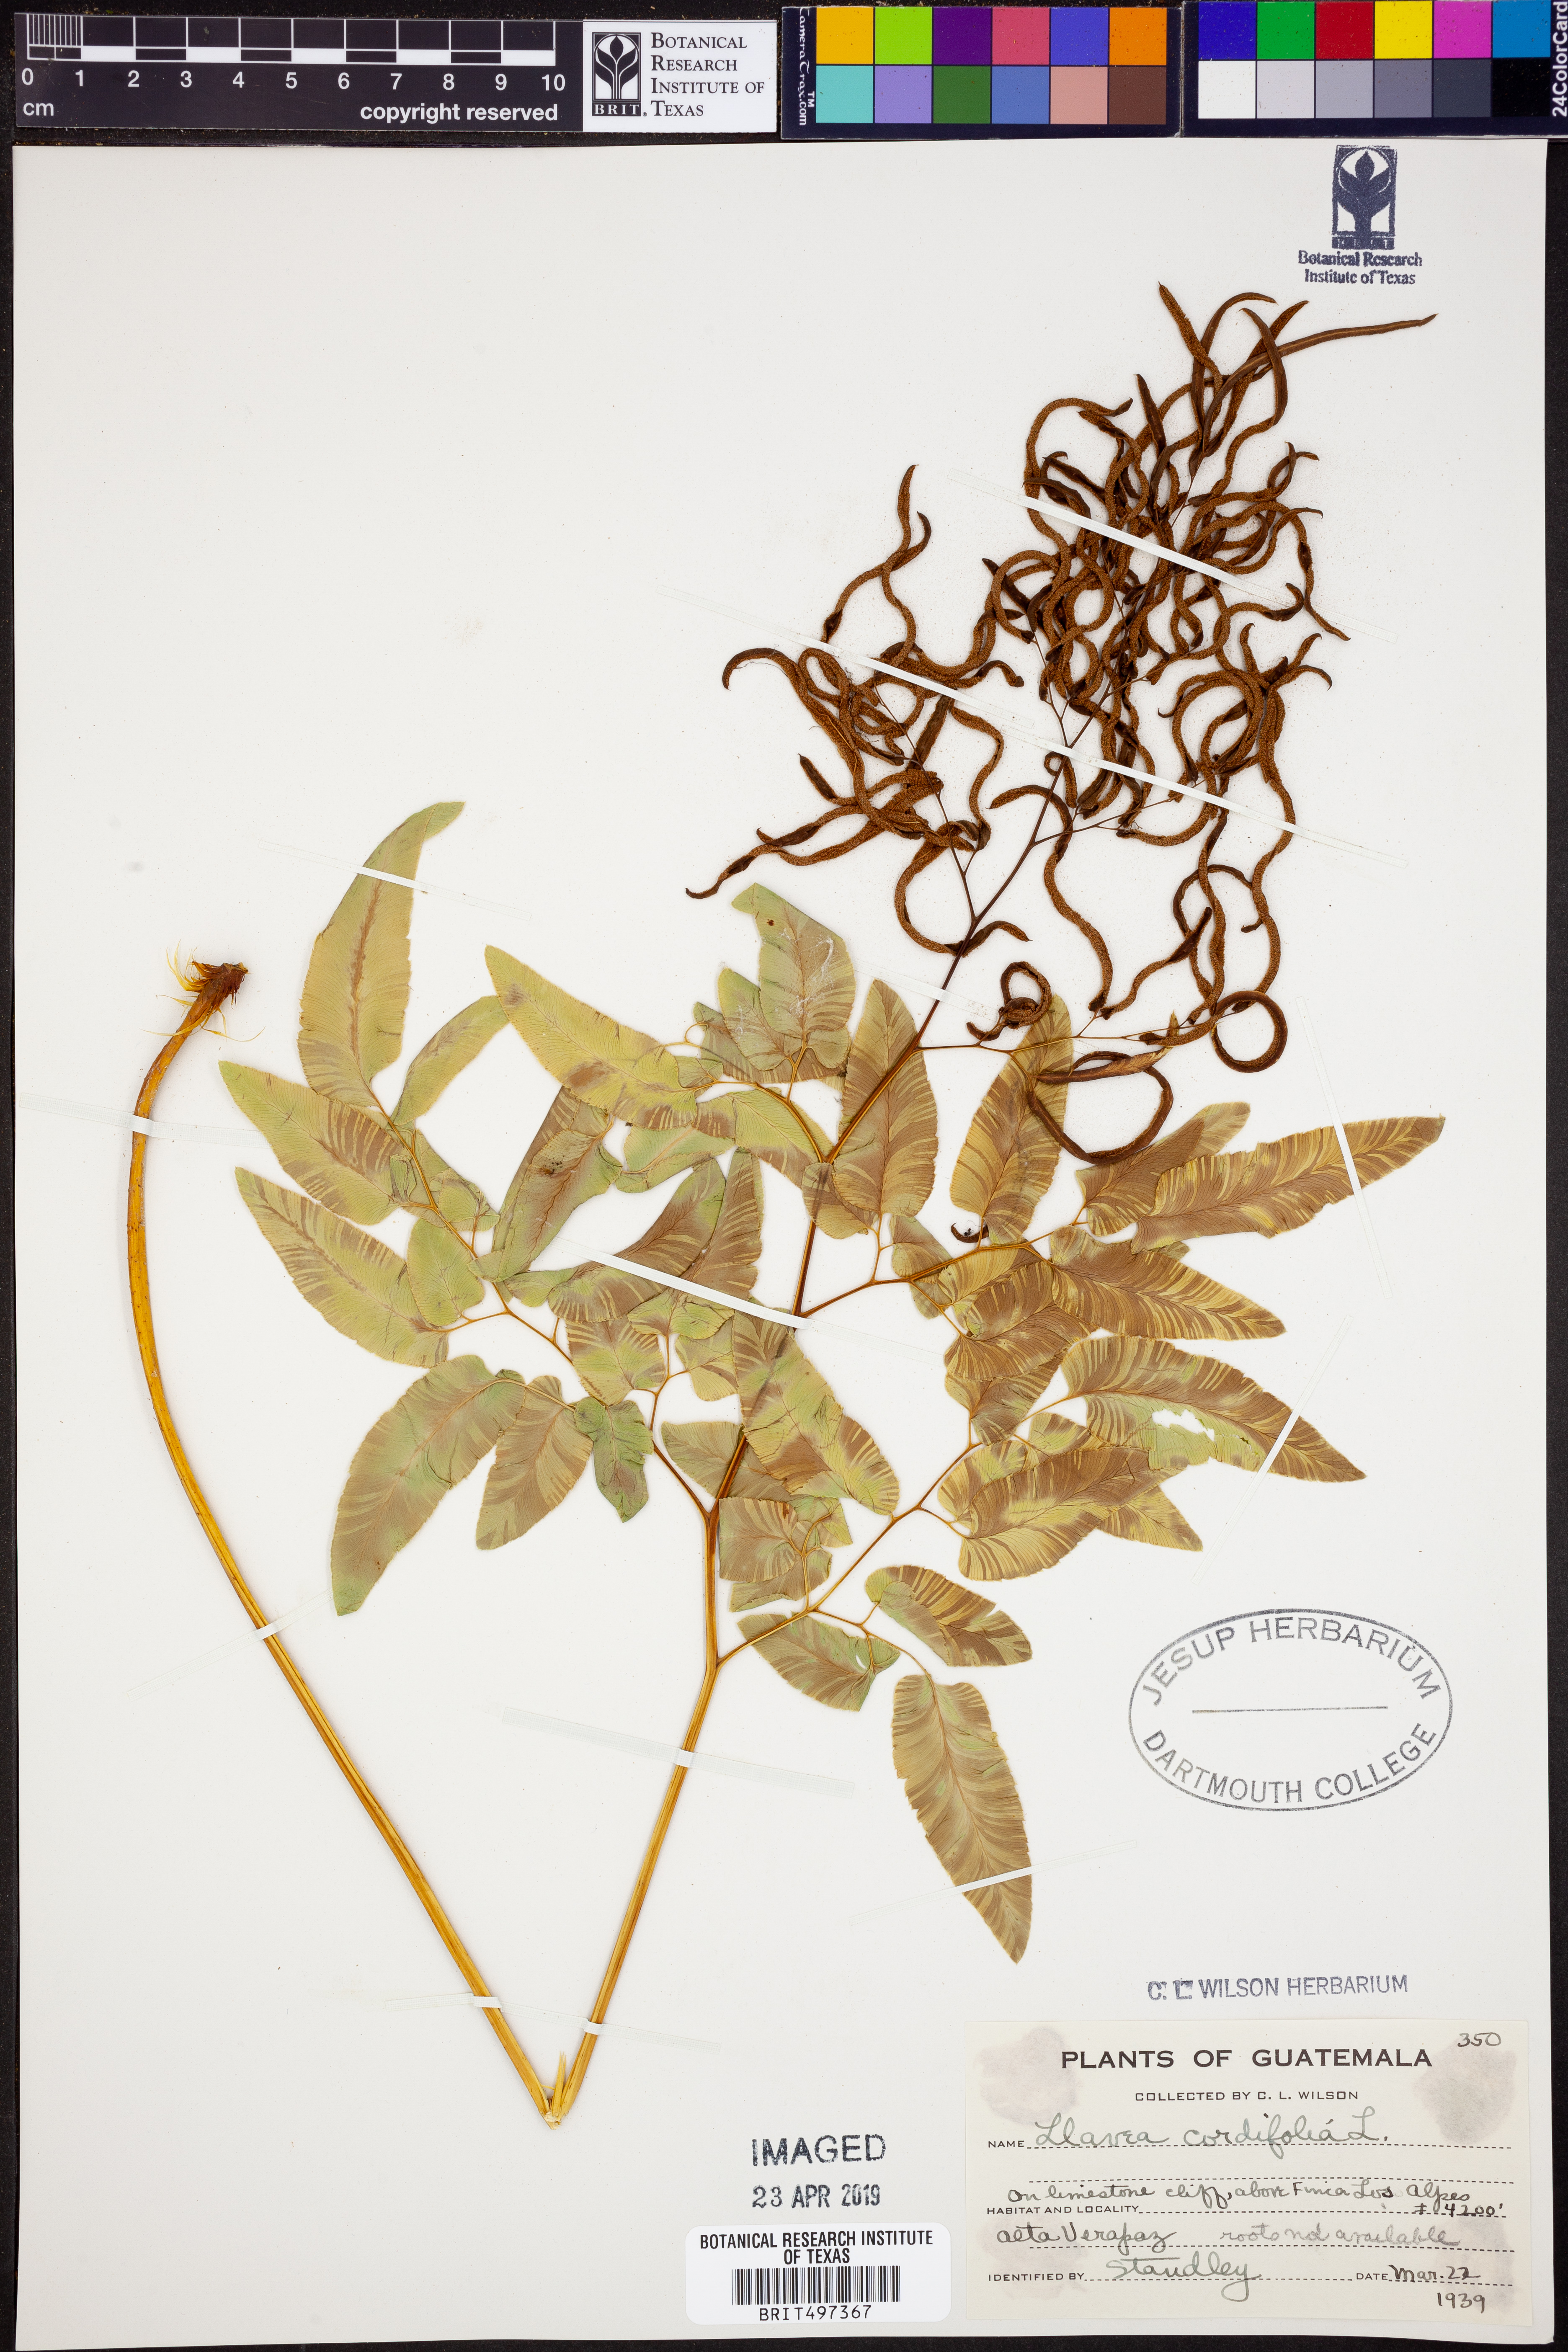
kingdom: Plantae
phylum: Tracheophyta
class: Polypodiopsida
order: Polypodiales
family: Pteridaceae
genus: Llavea
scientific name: Llavea cordifolia
